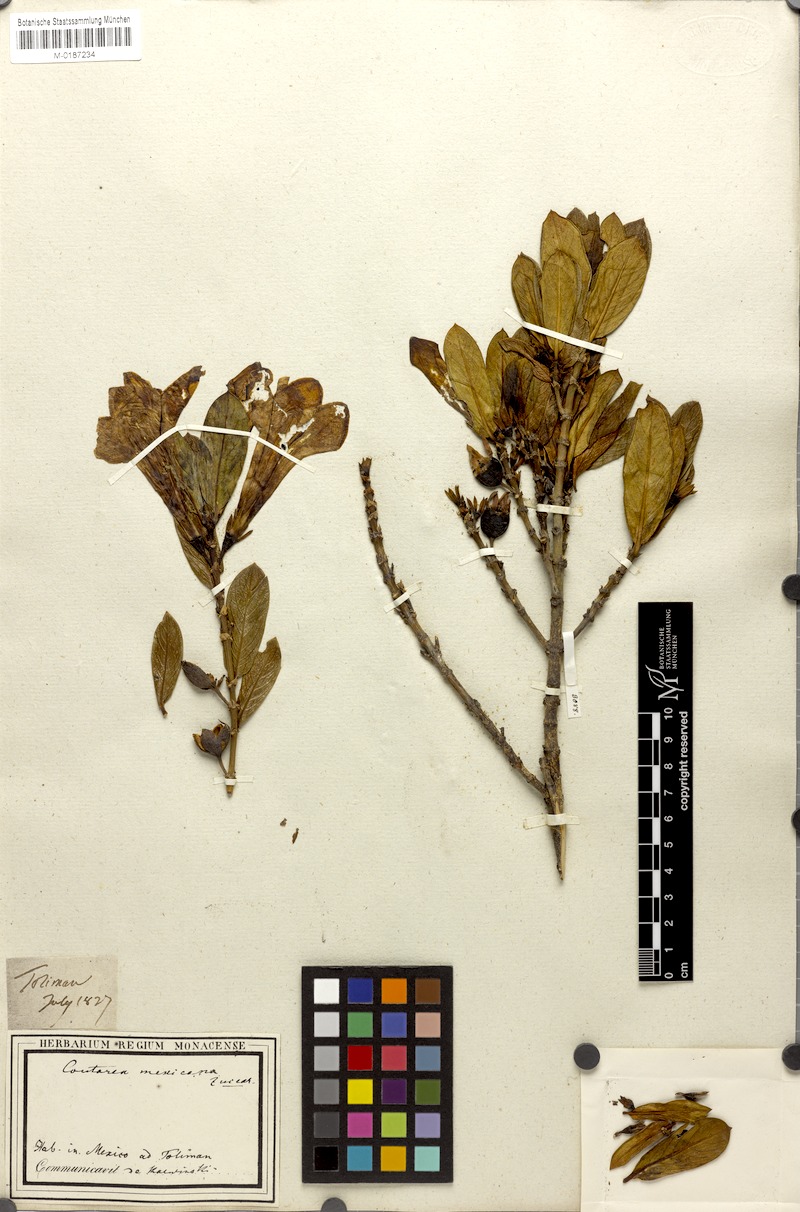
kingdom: Plantae
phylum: Tracheophyta
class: Magnoliopsida
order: Gentianales
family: Rubiaceae
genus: Nernstia
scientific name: Nernstia mexicana
